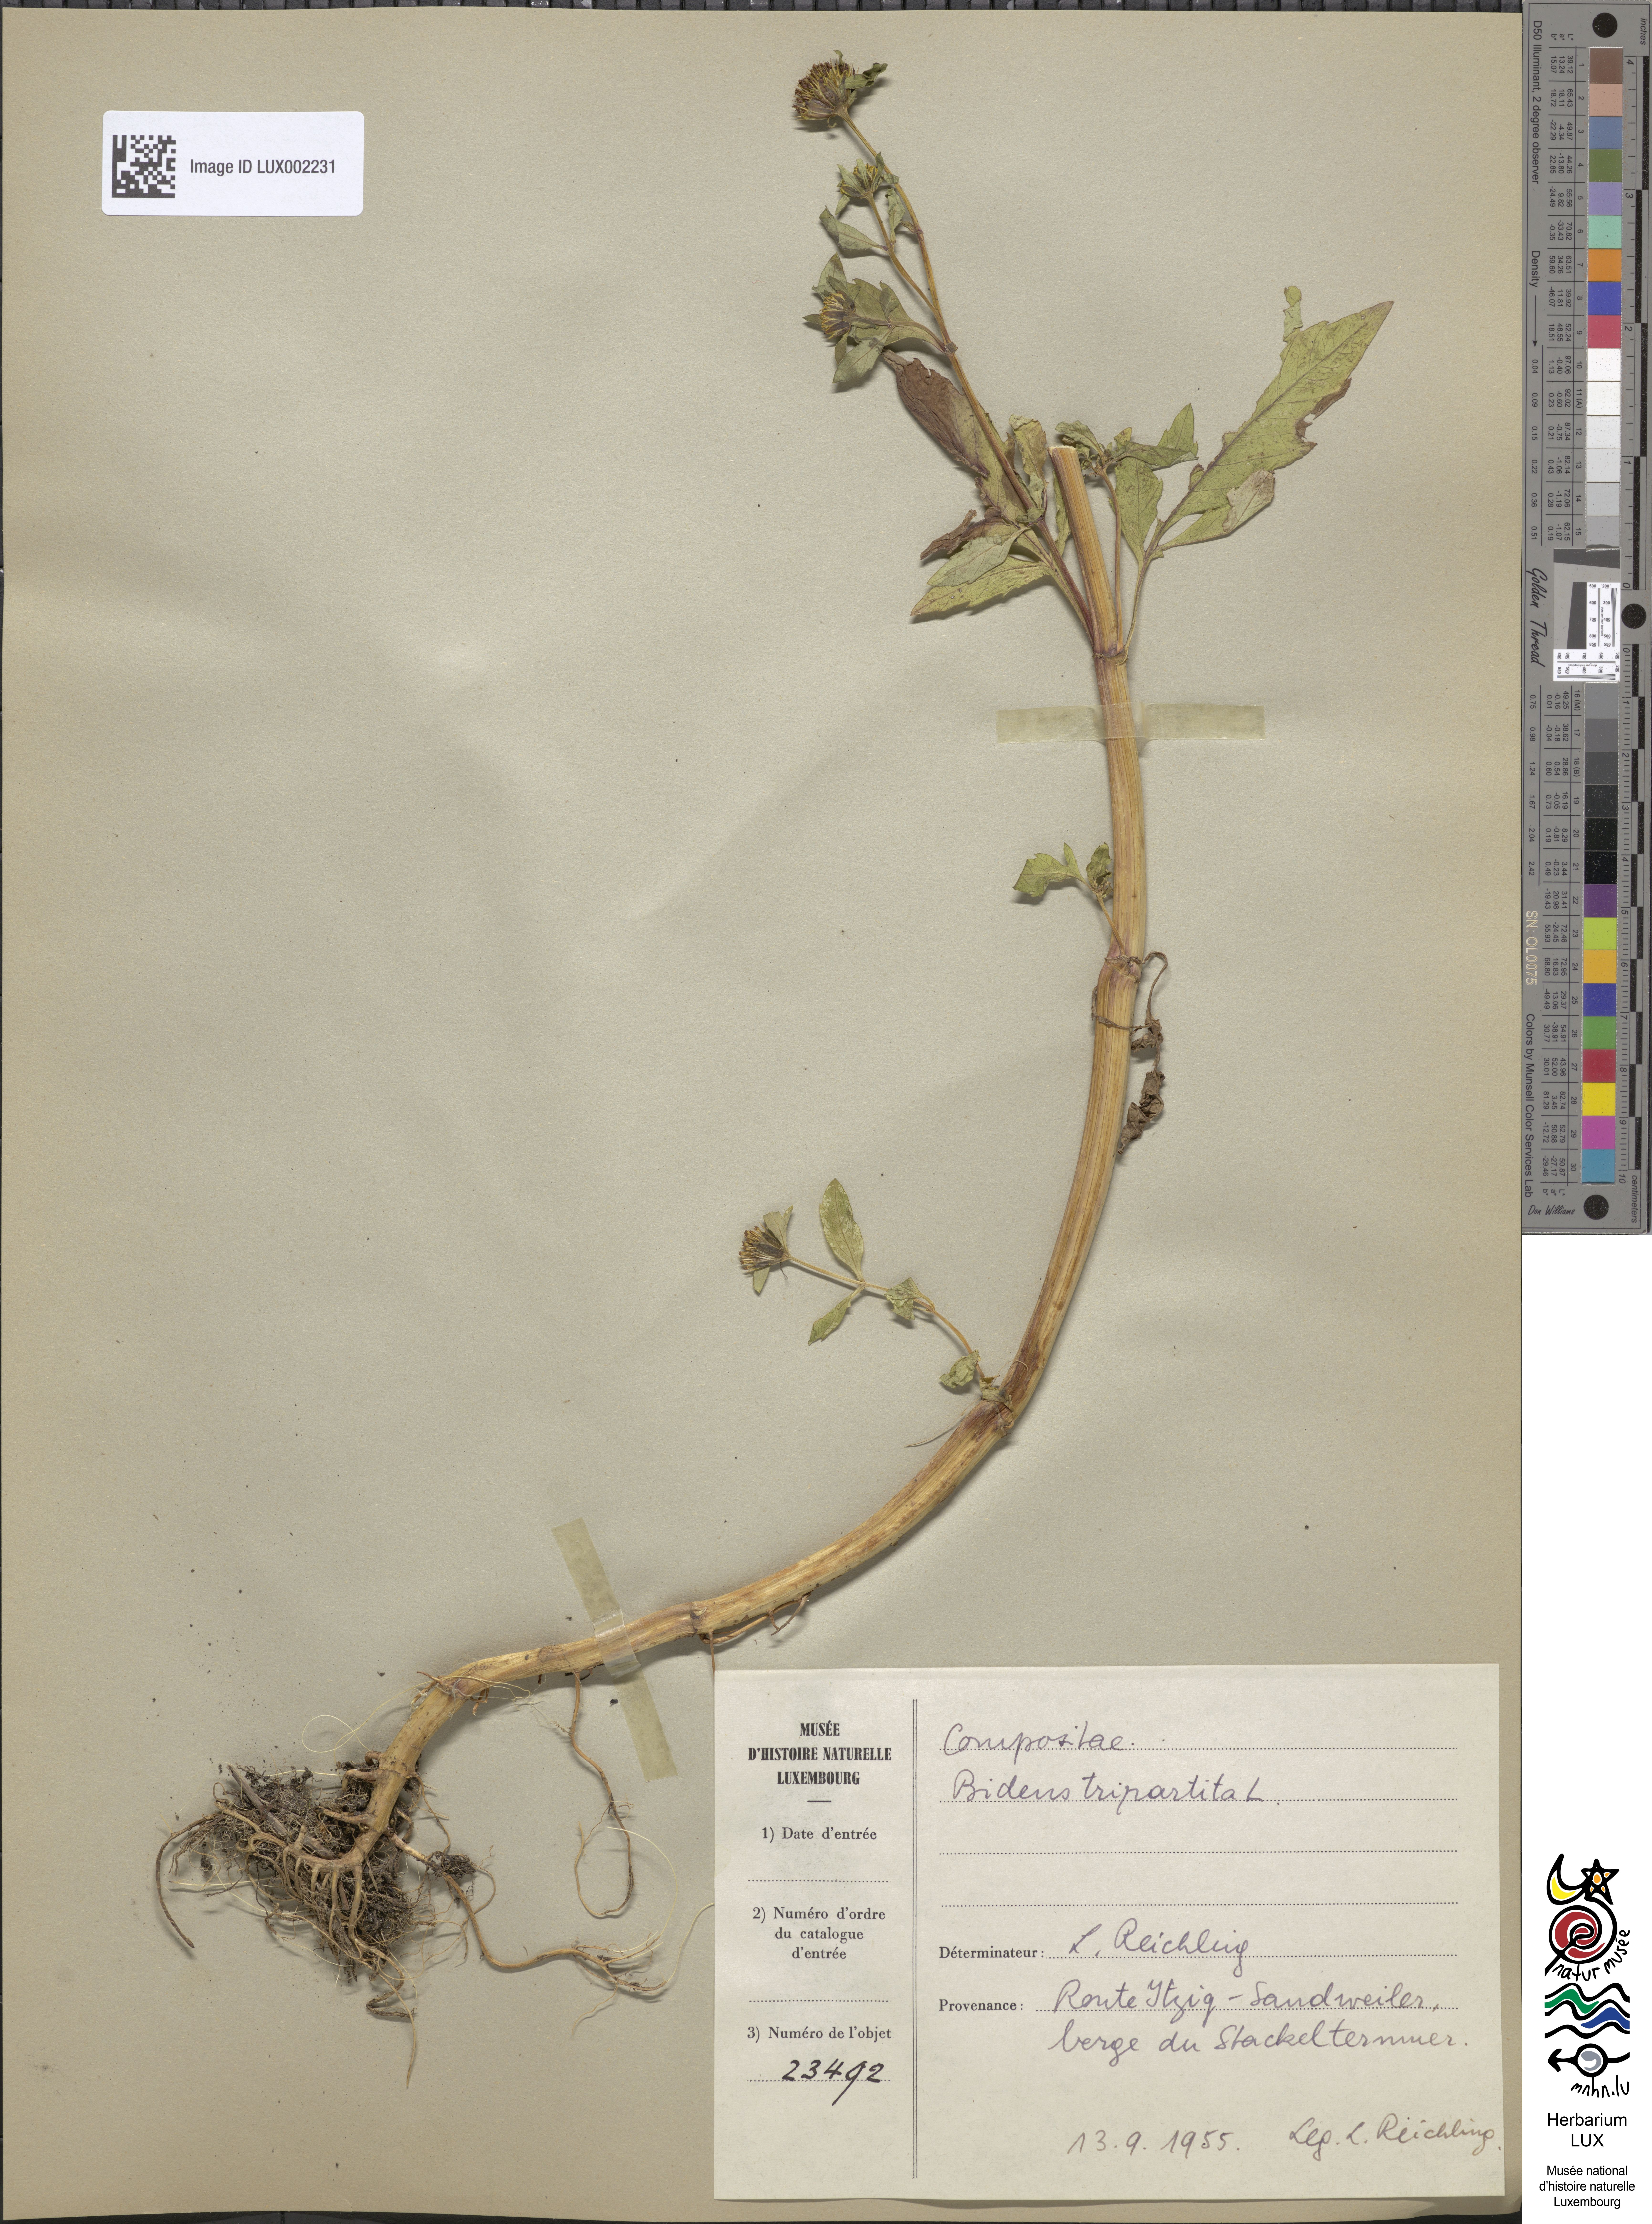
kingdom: Plantae
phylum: Tracheophyta
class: Magnoliopsida
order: Asterales
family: Asteraceae
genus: Bidens
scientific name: Bidens tripartita
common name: Trifid bur-marigold
